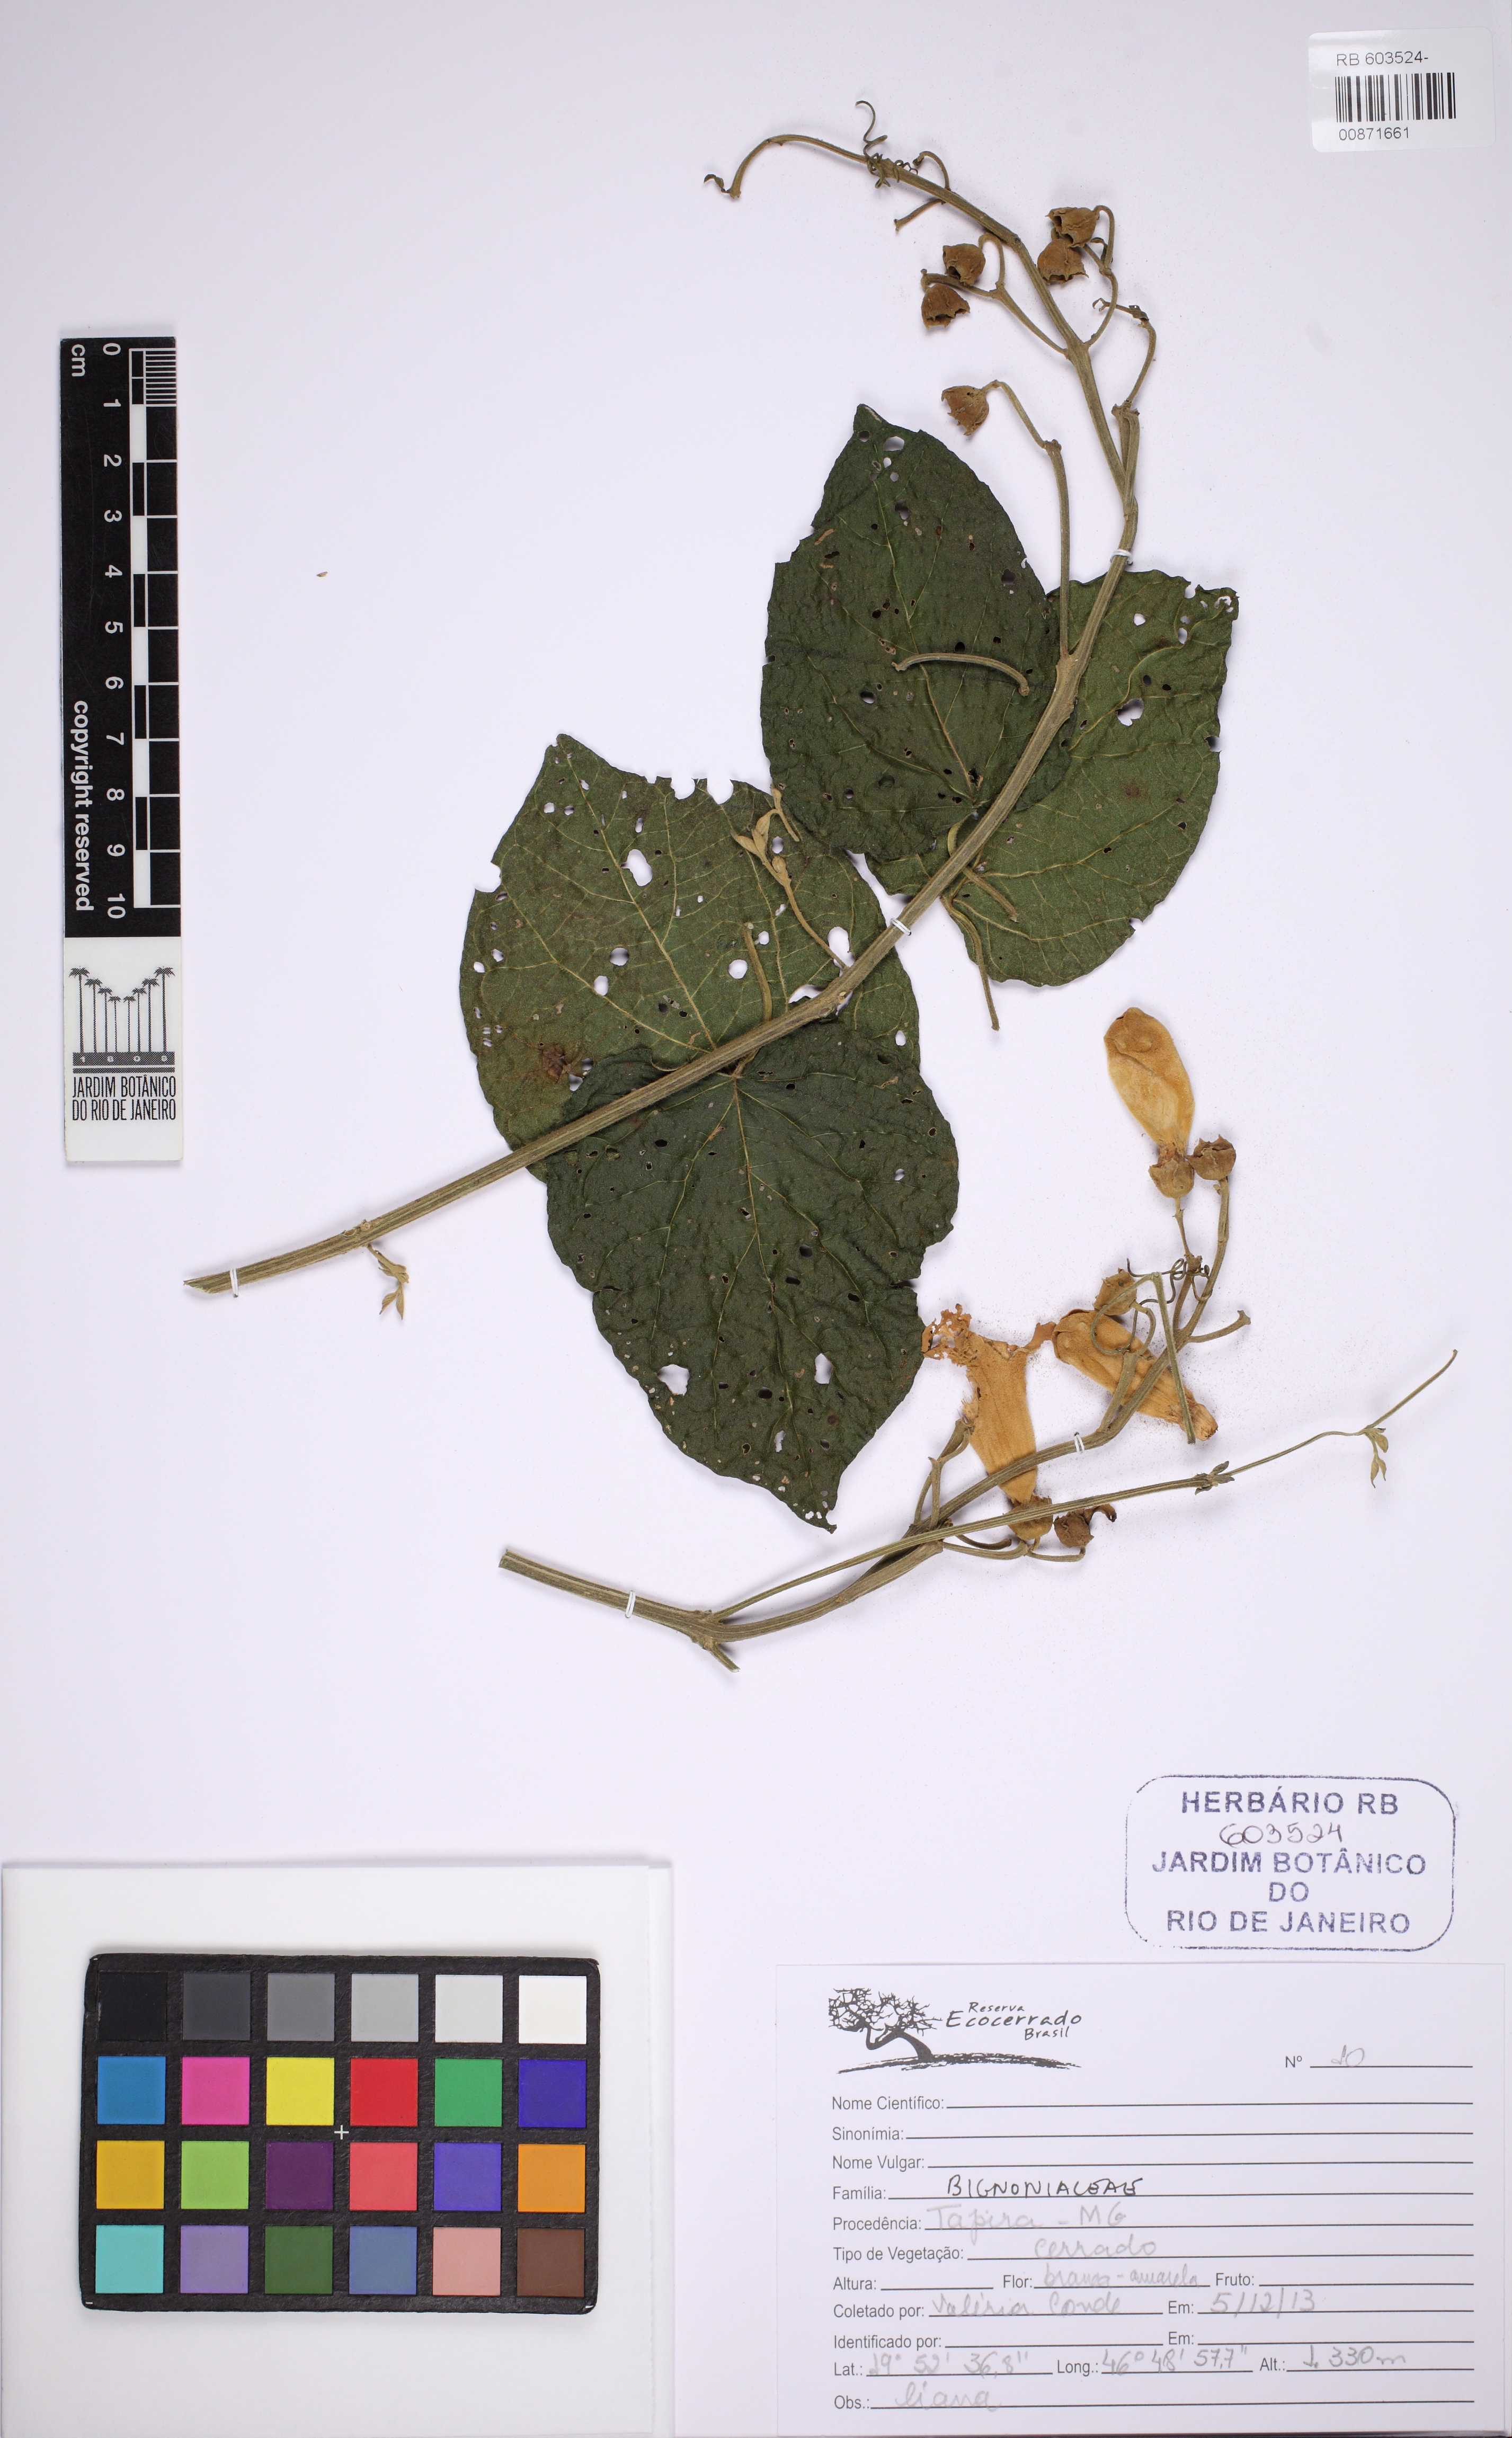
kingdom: Plantae
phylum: Tracheophyta
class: Magnoliopsida
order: Lamiales
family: Bignoniaceae
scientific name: Bignoniaceae
